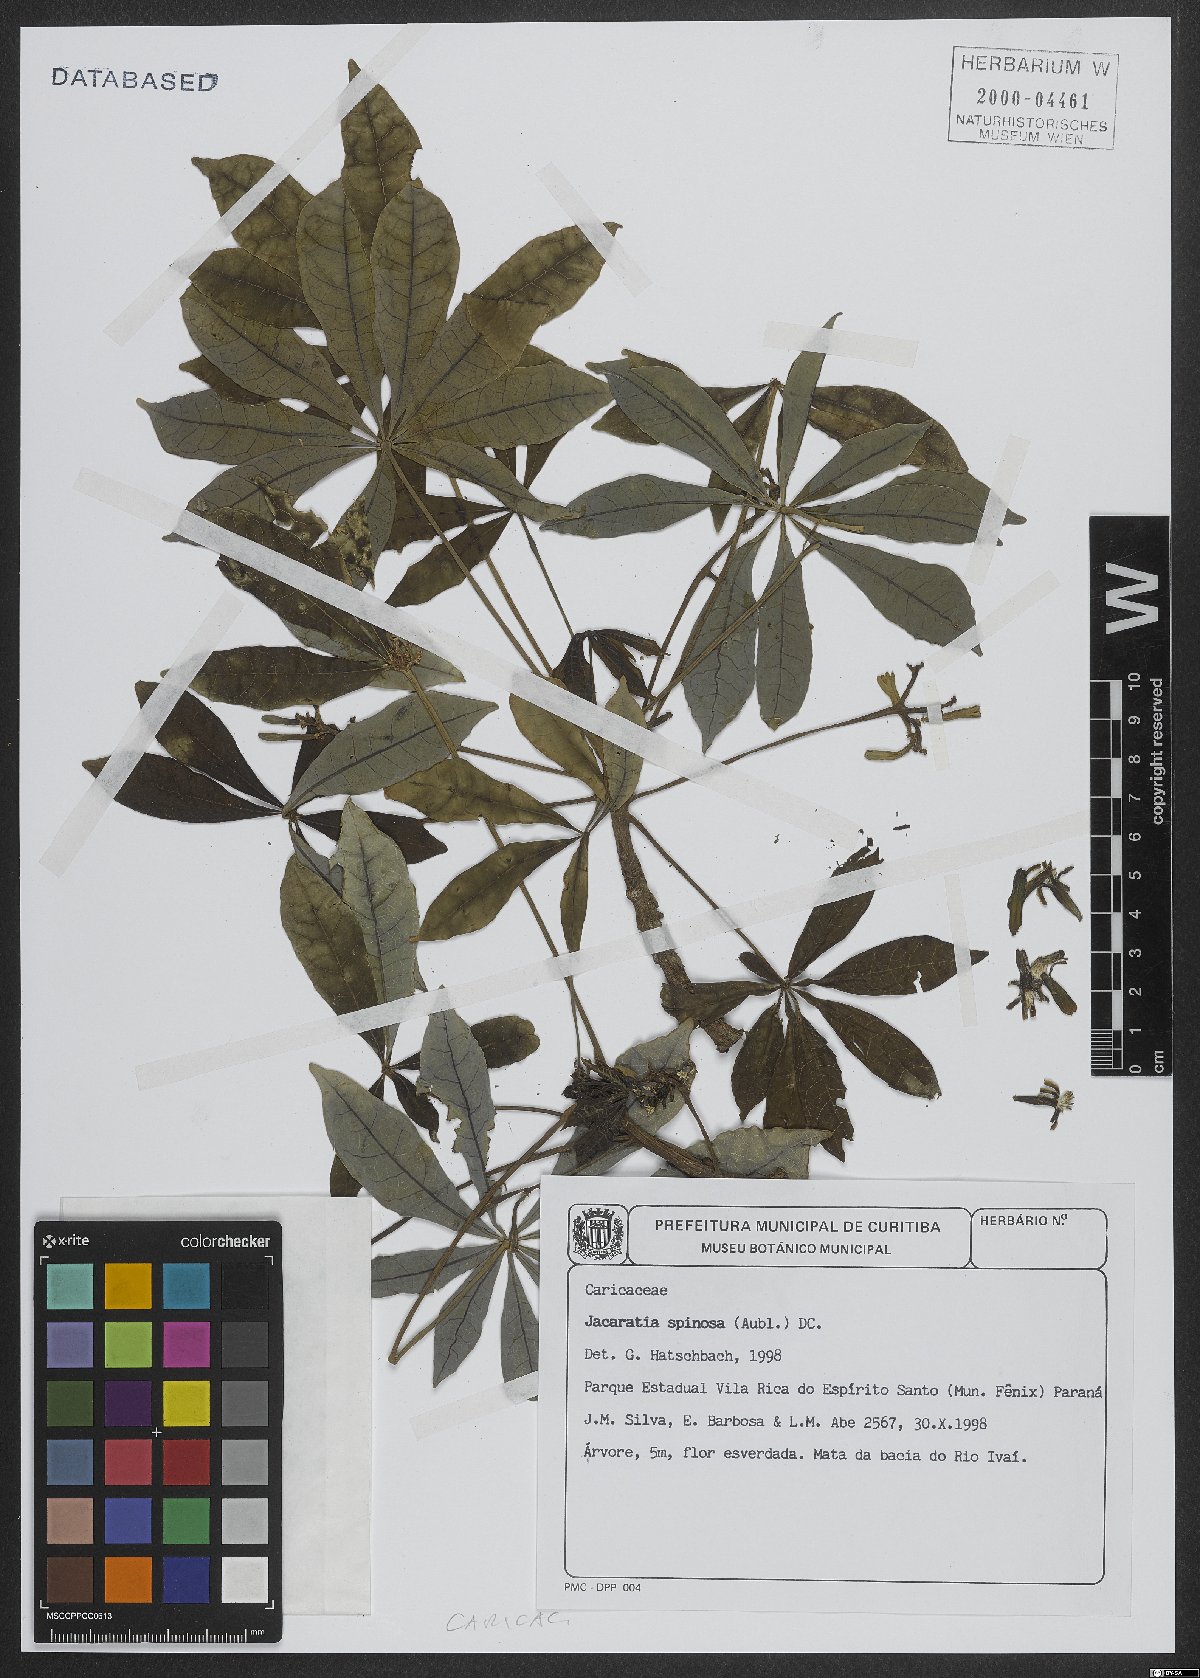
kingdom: Plantae
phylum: Tracheophyta
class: Magnoliopsida
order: Brassicales
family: Caricaceae
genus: Jacaratia
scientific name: Jacaratia spinosa
